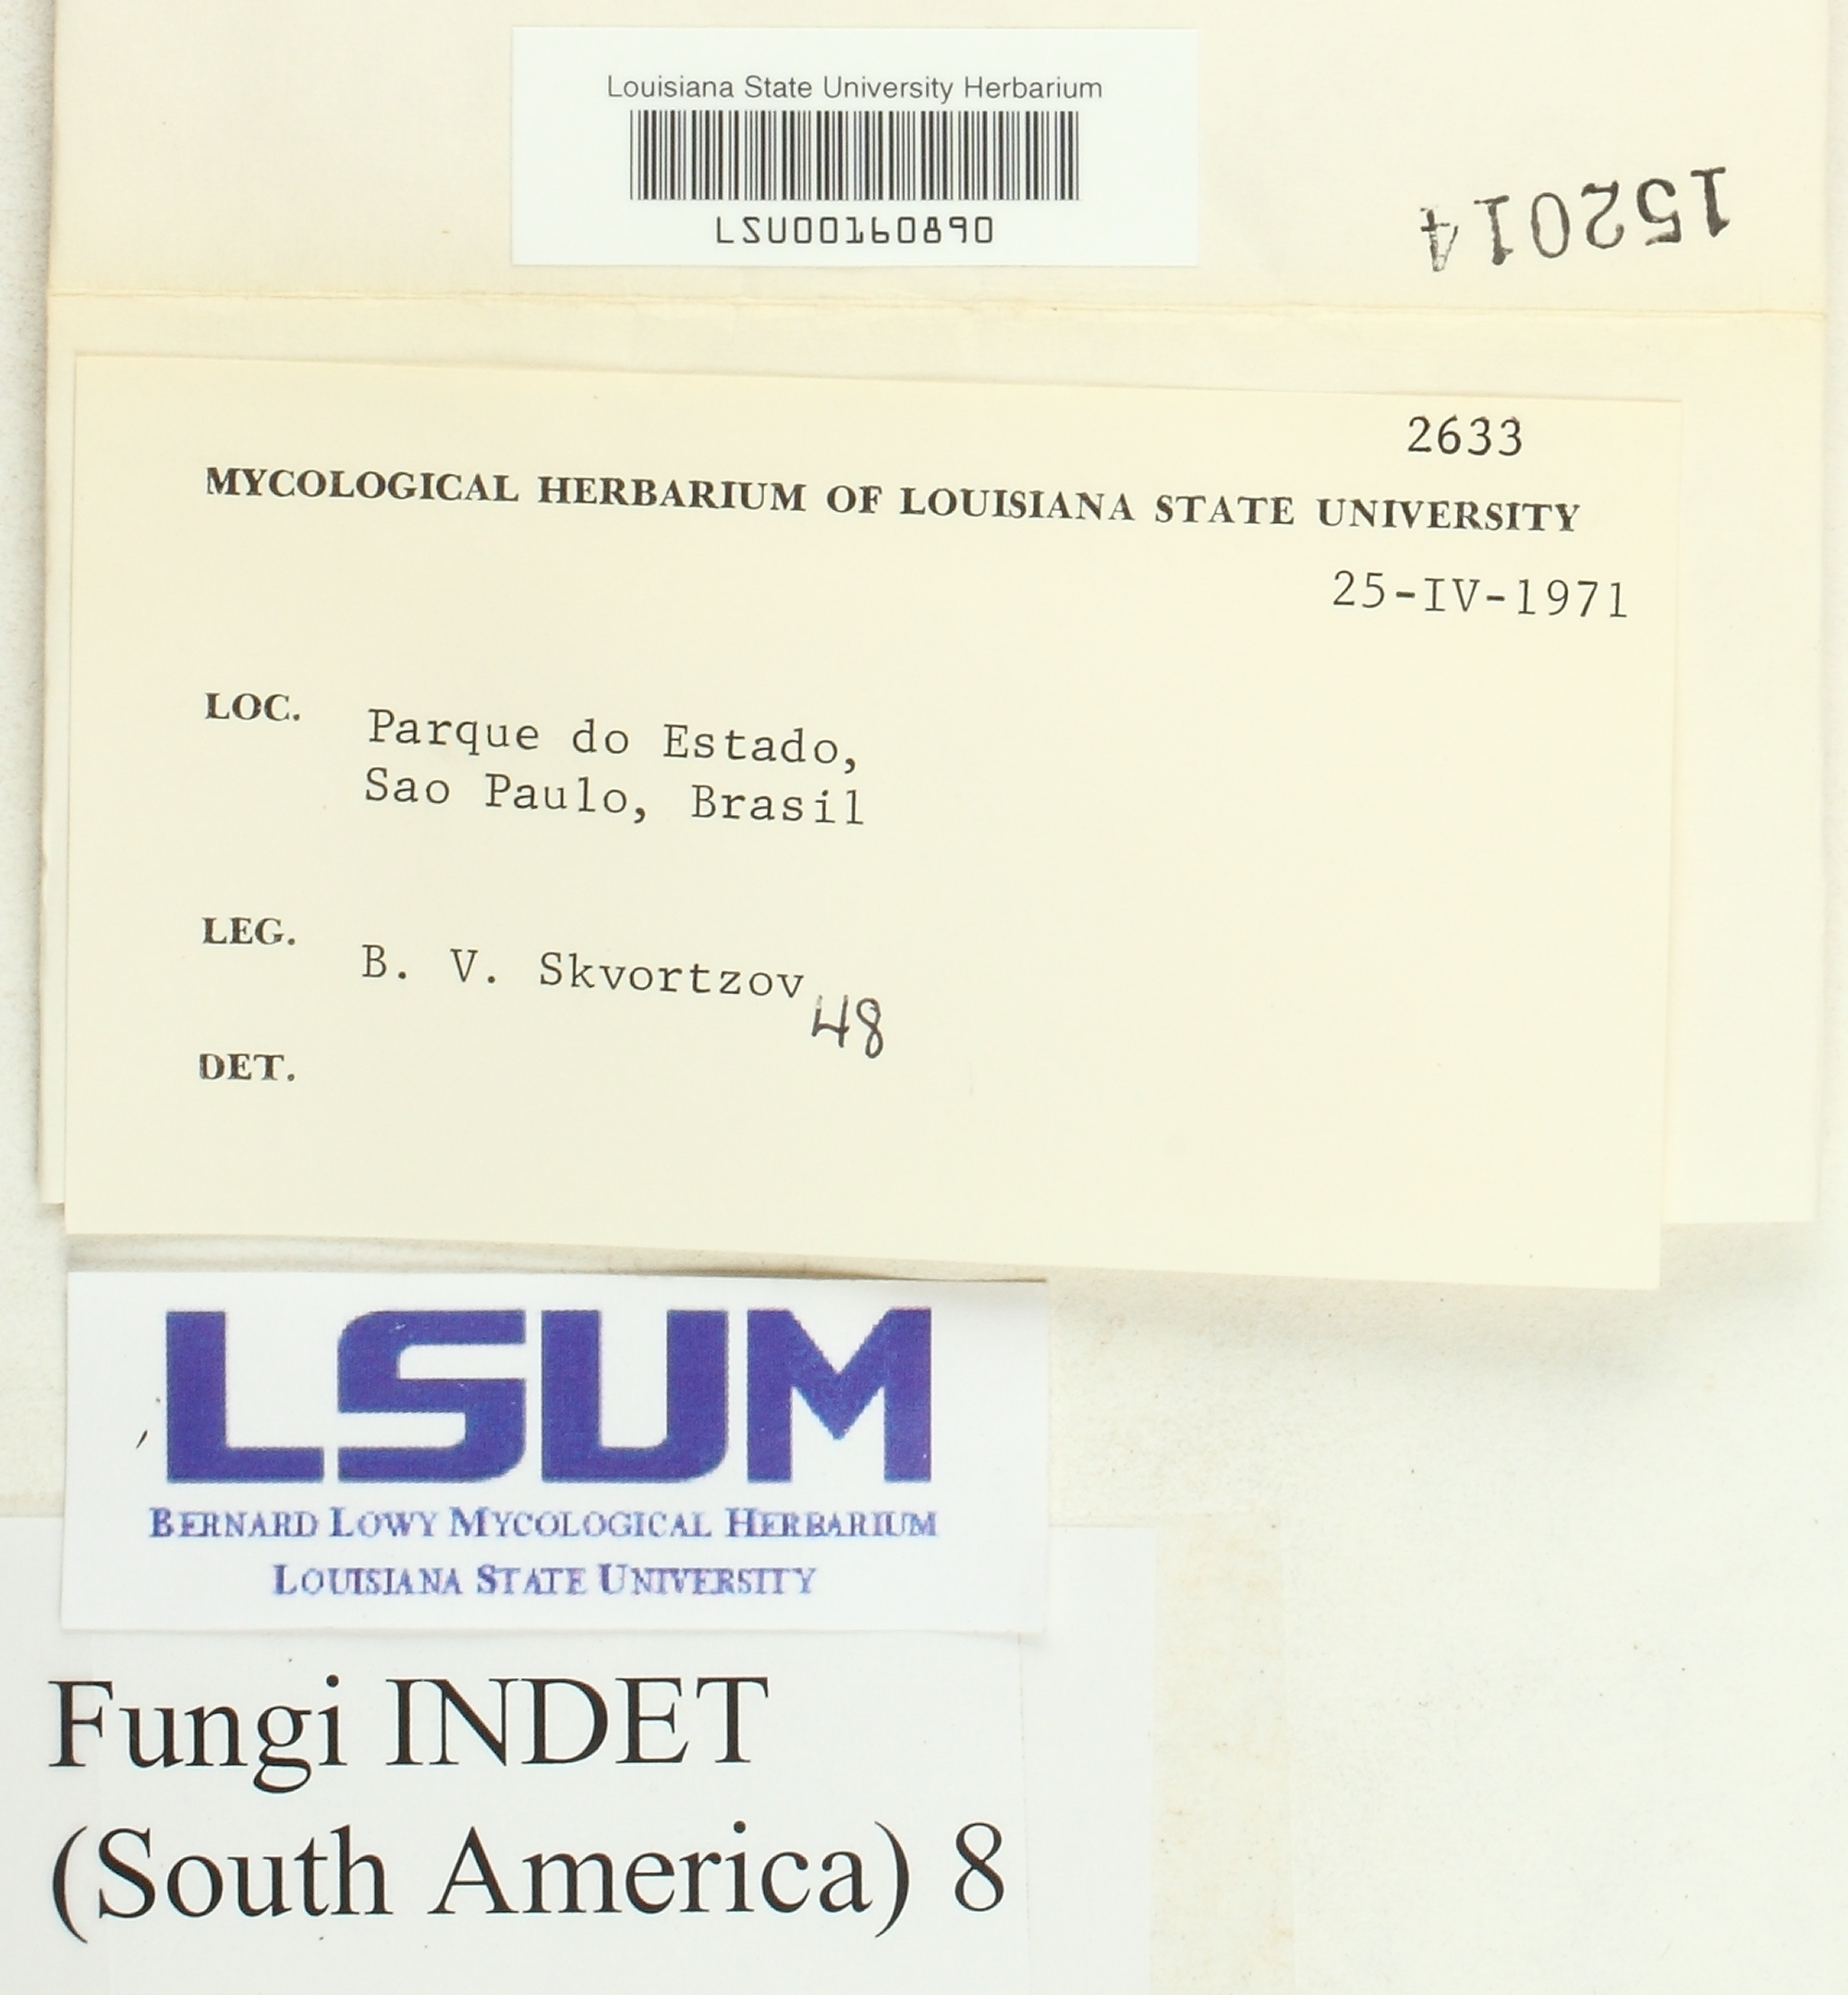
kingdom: Fungi
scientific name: Fungi
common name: Fungi
